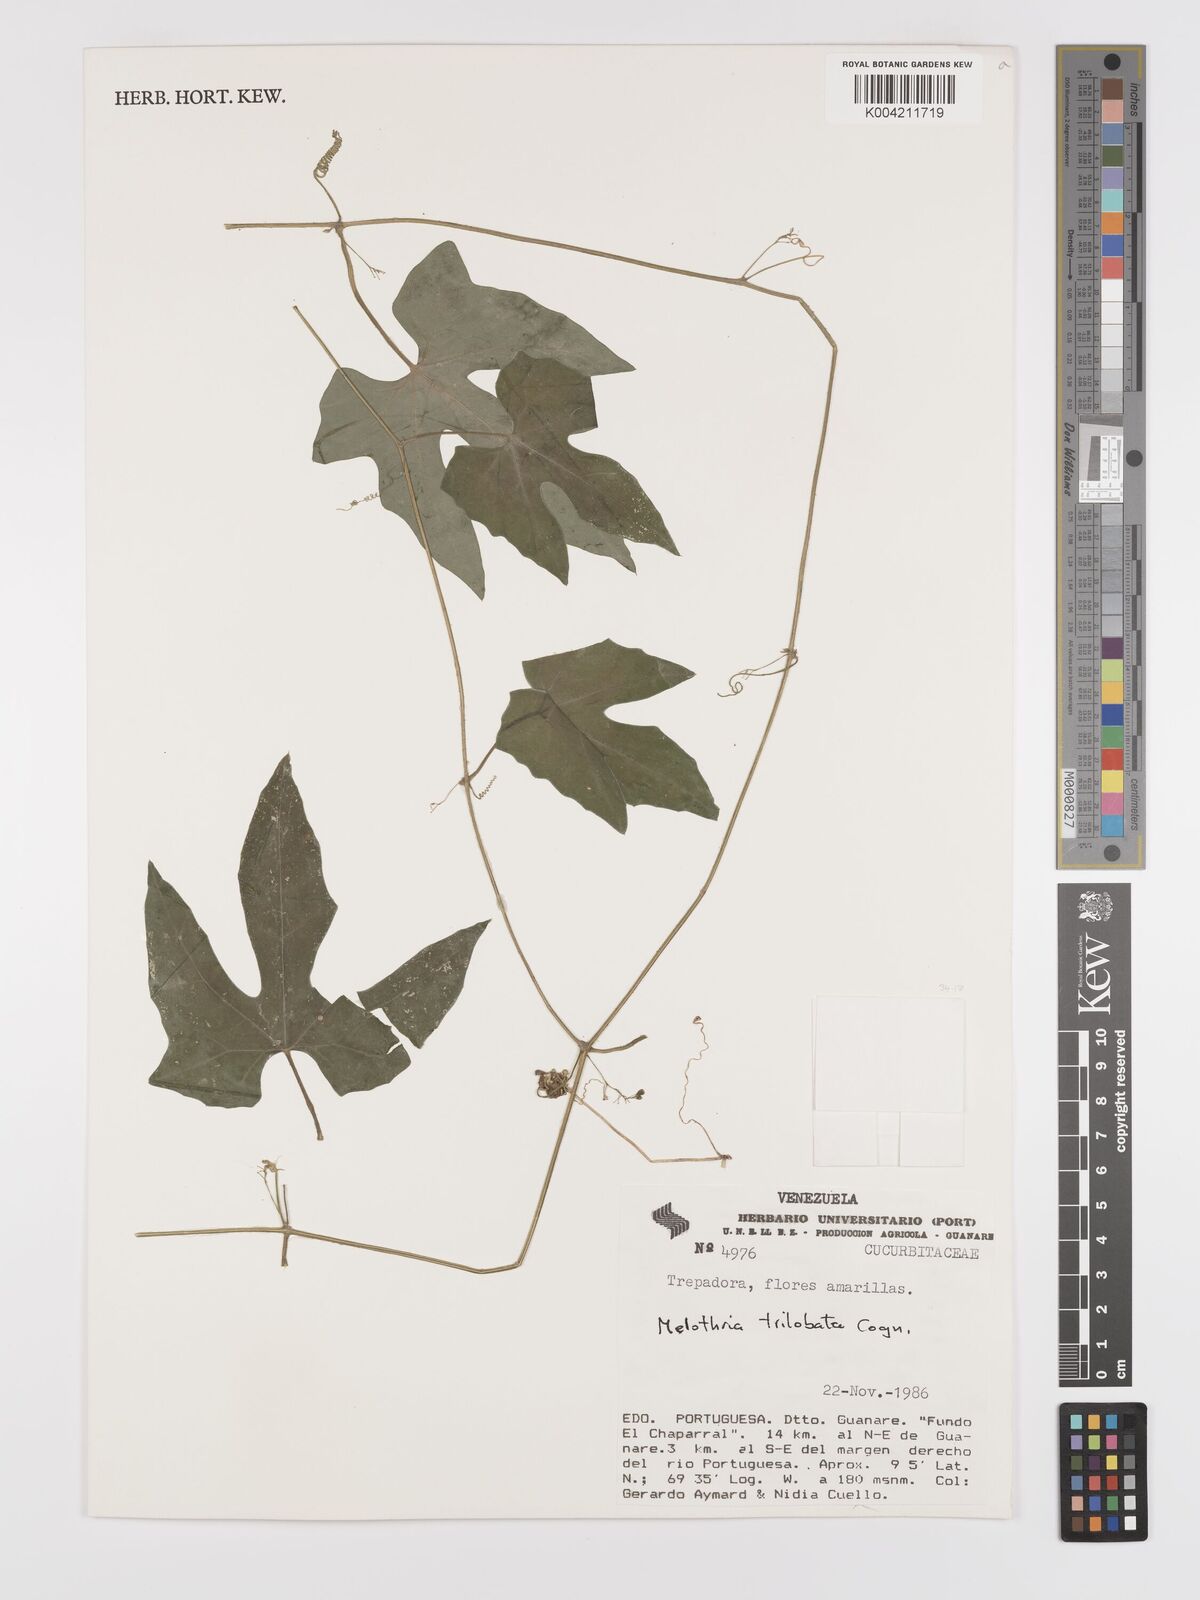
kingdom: Plantae
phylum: Tracheophyta
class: Magnoliopsida
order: Cucurbitales
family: Cucurbitaceae
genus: Melothria
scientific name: Melothria trilobata
